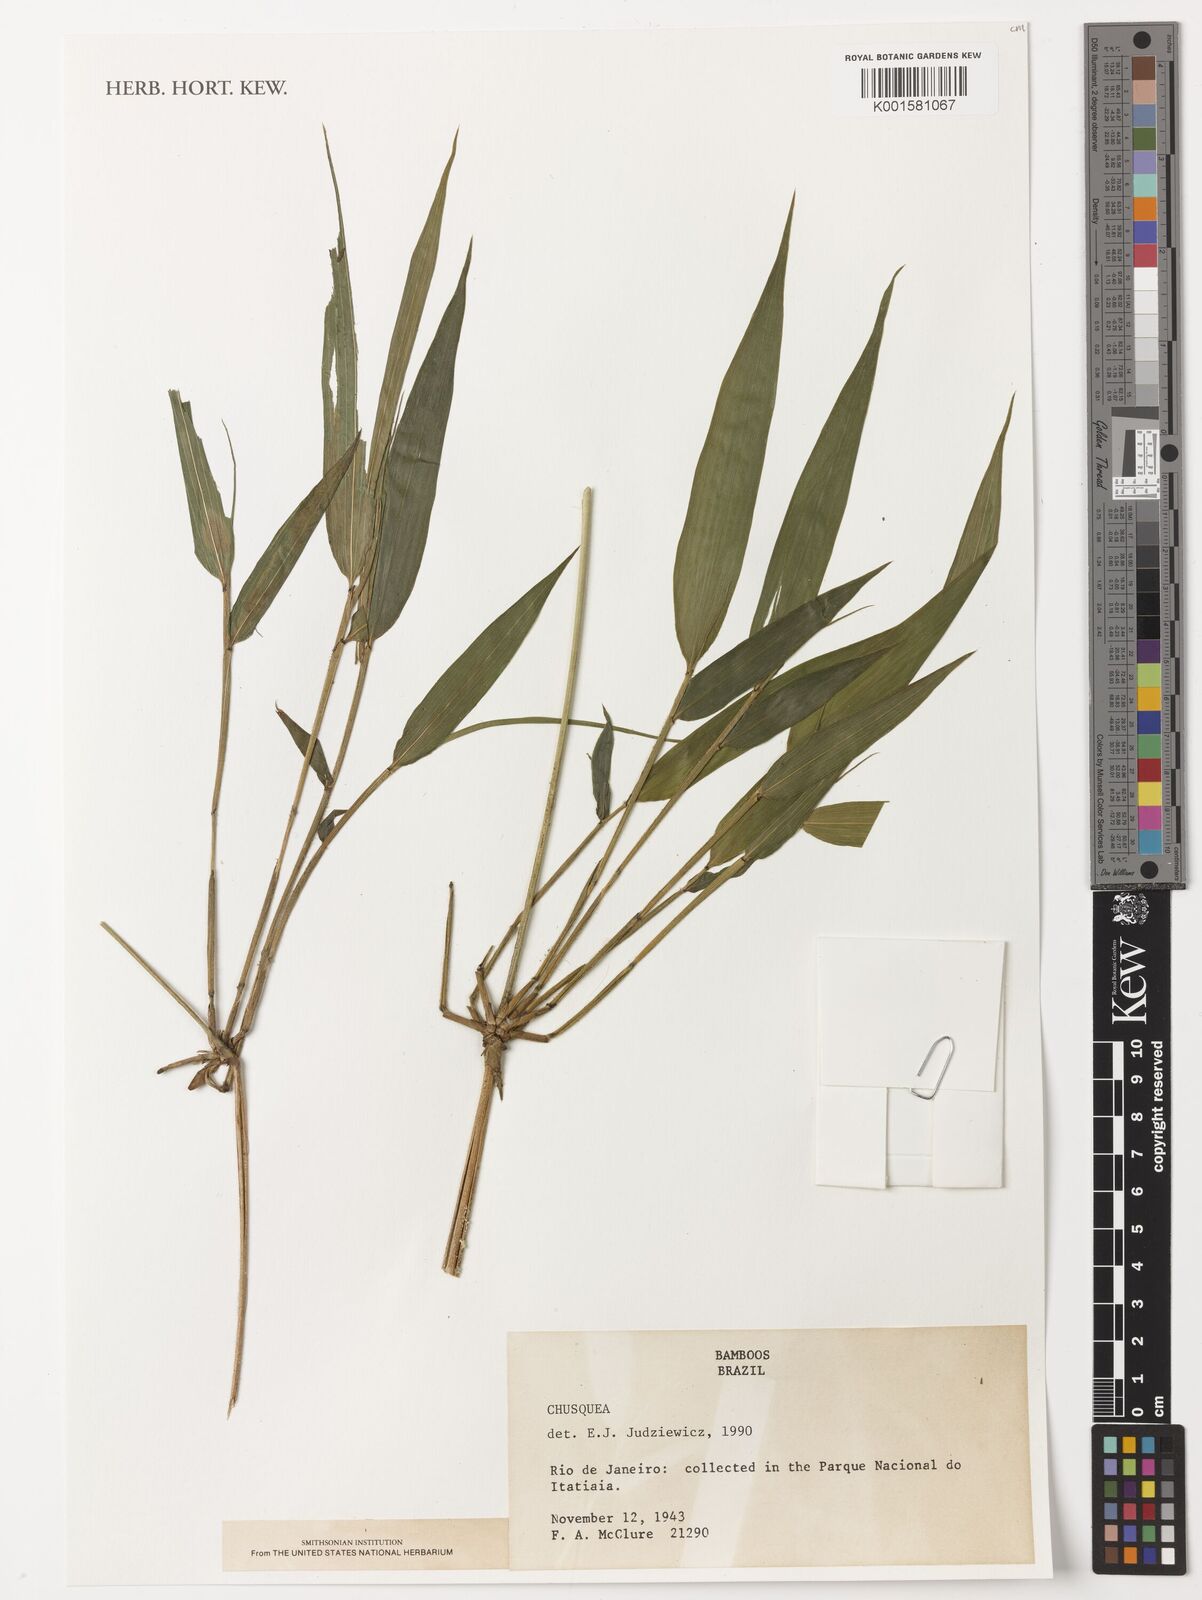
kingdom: Plantae
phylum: Tracheophyta
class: Liliopsida
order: Poales
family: Poaceae
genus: Chusquea
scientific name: Chusquea
